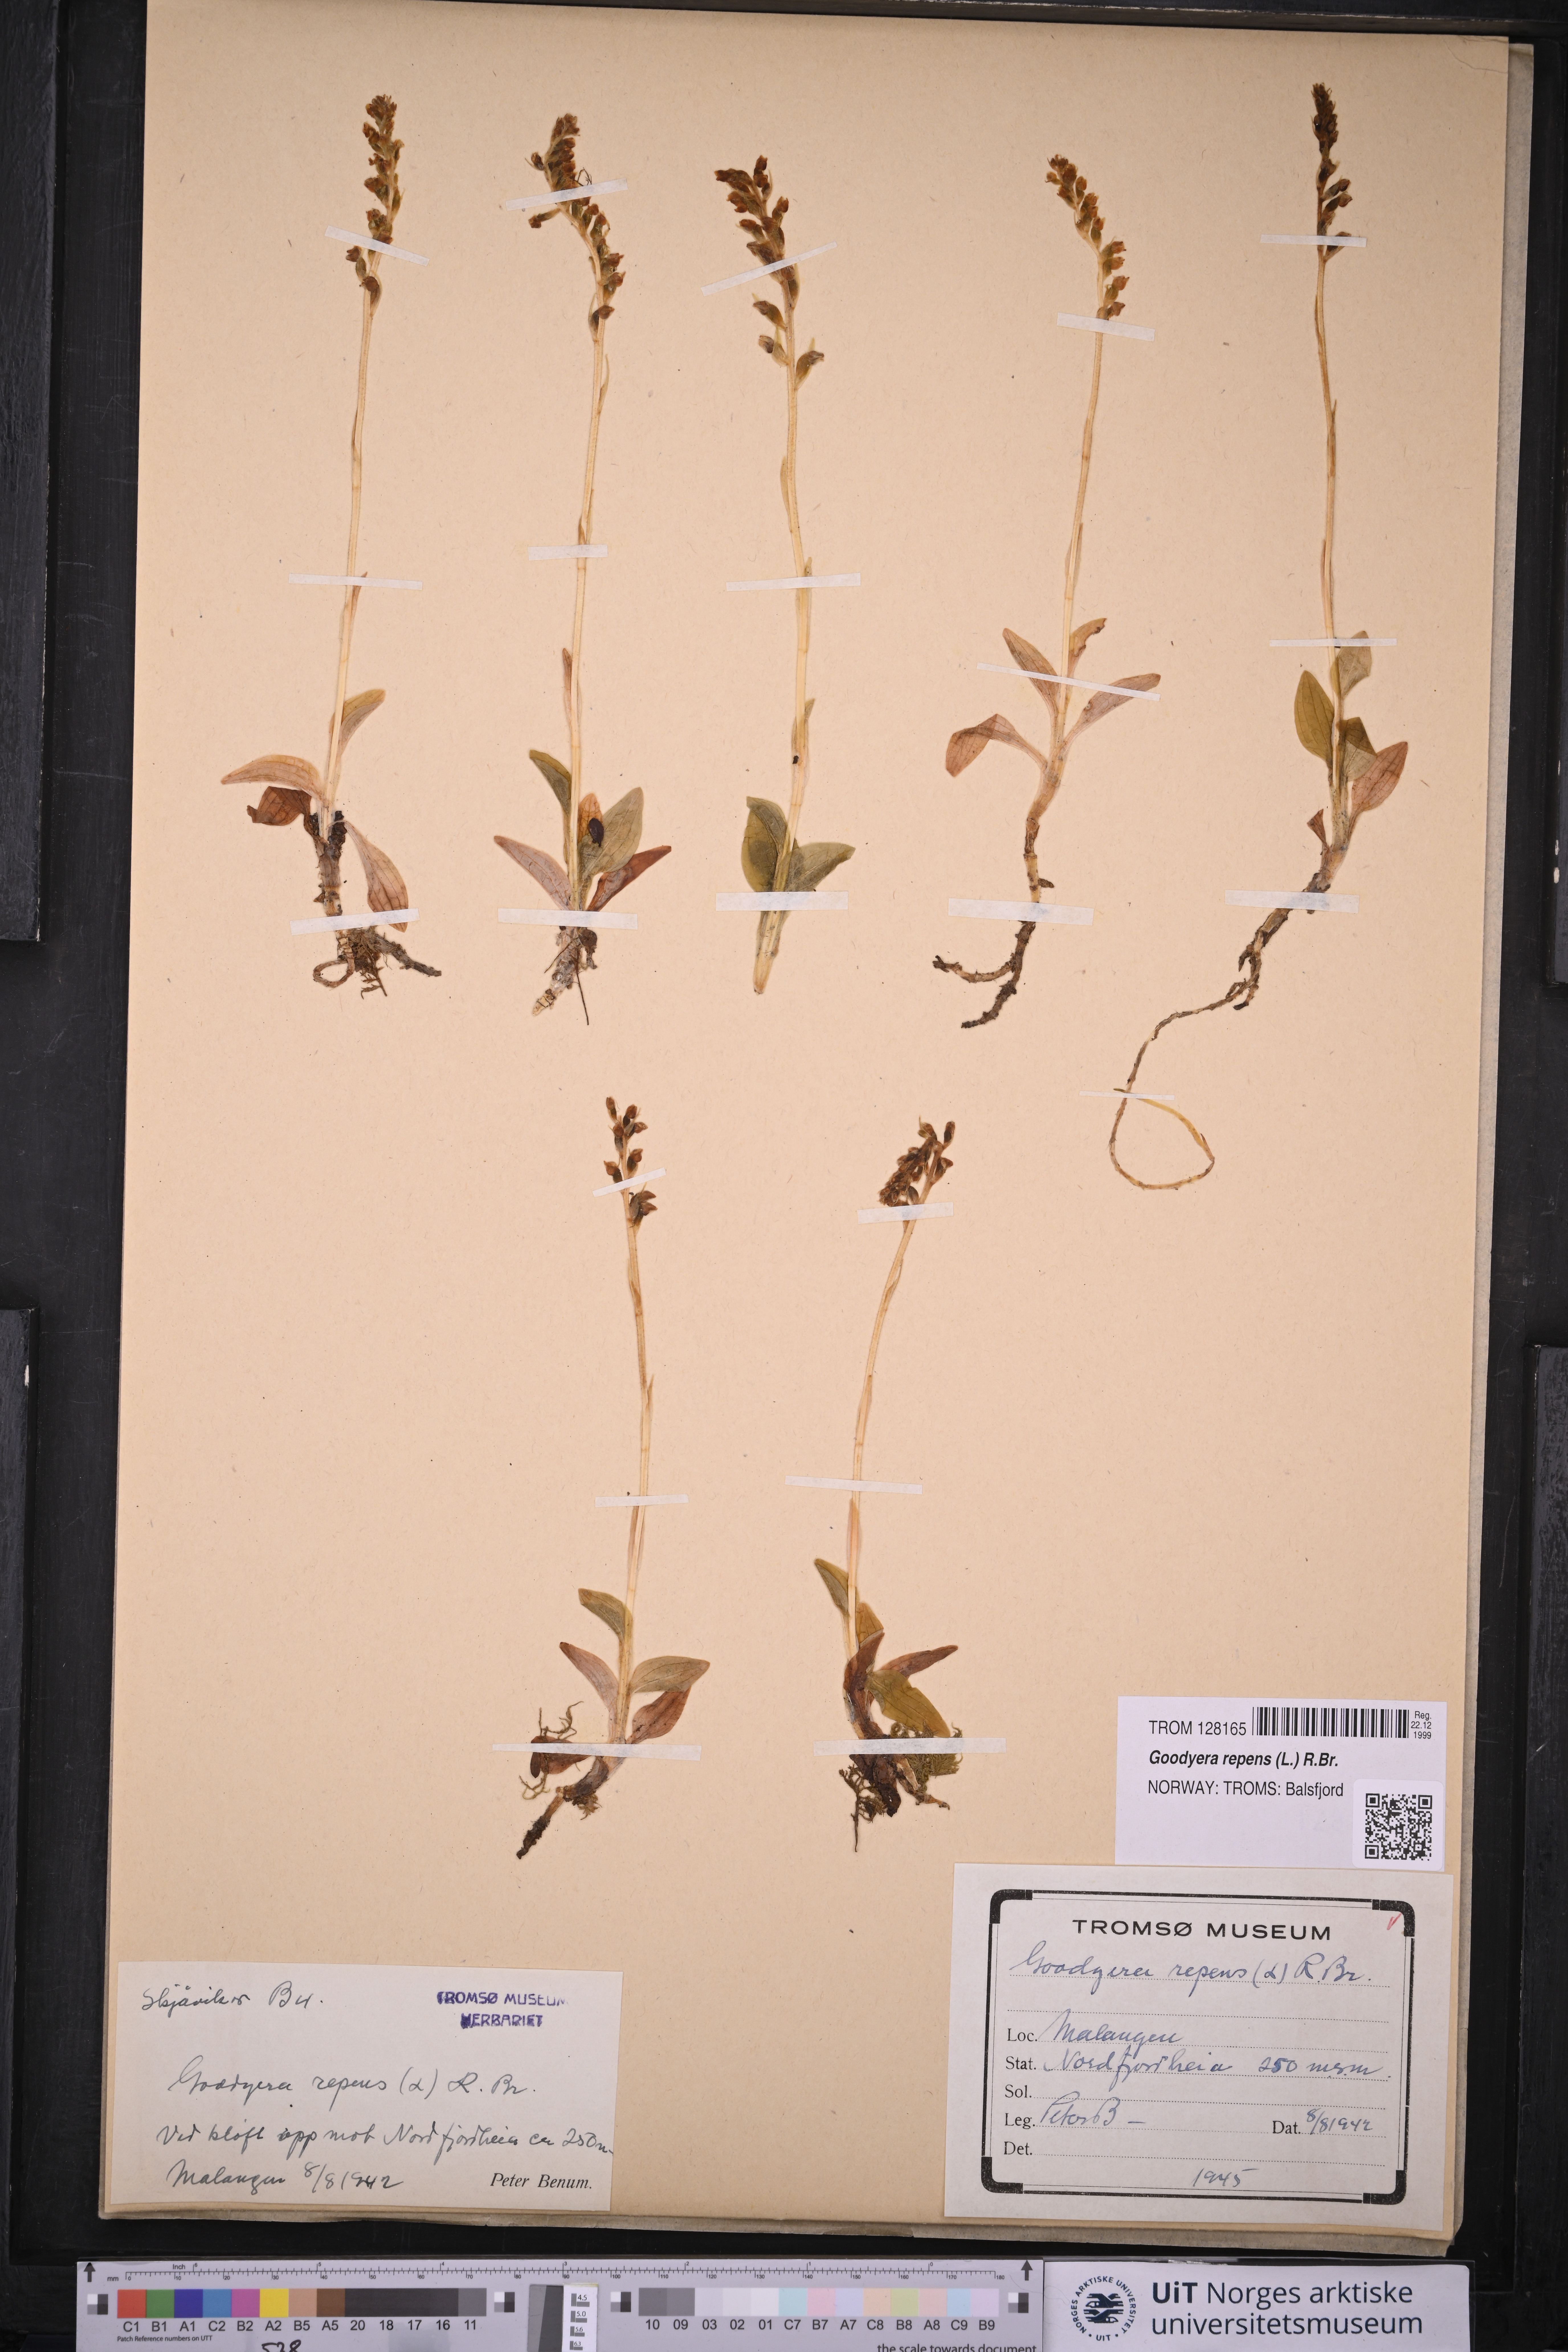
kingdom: Plantae
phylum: Tracheophyta
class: Liliopsida
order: Asparagales
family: Orchidaceae
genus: Goodyera
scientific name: Goodyera repens
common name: Creeping lady's-tresses
